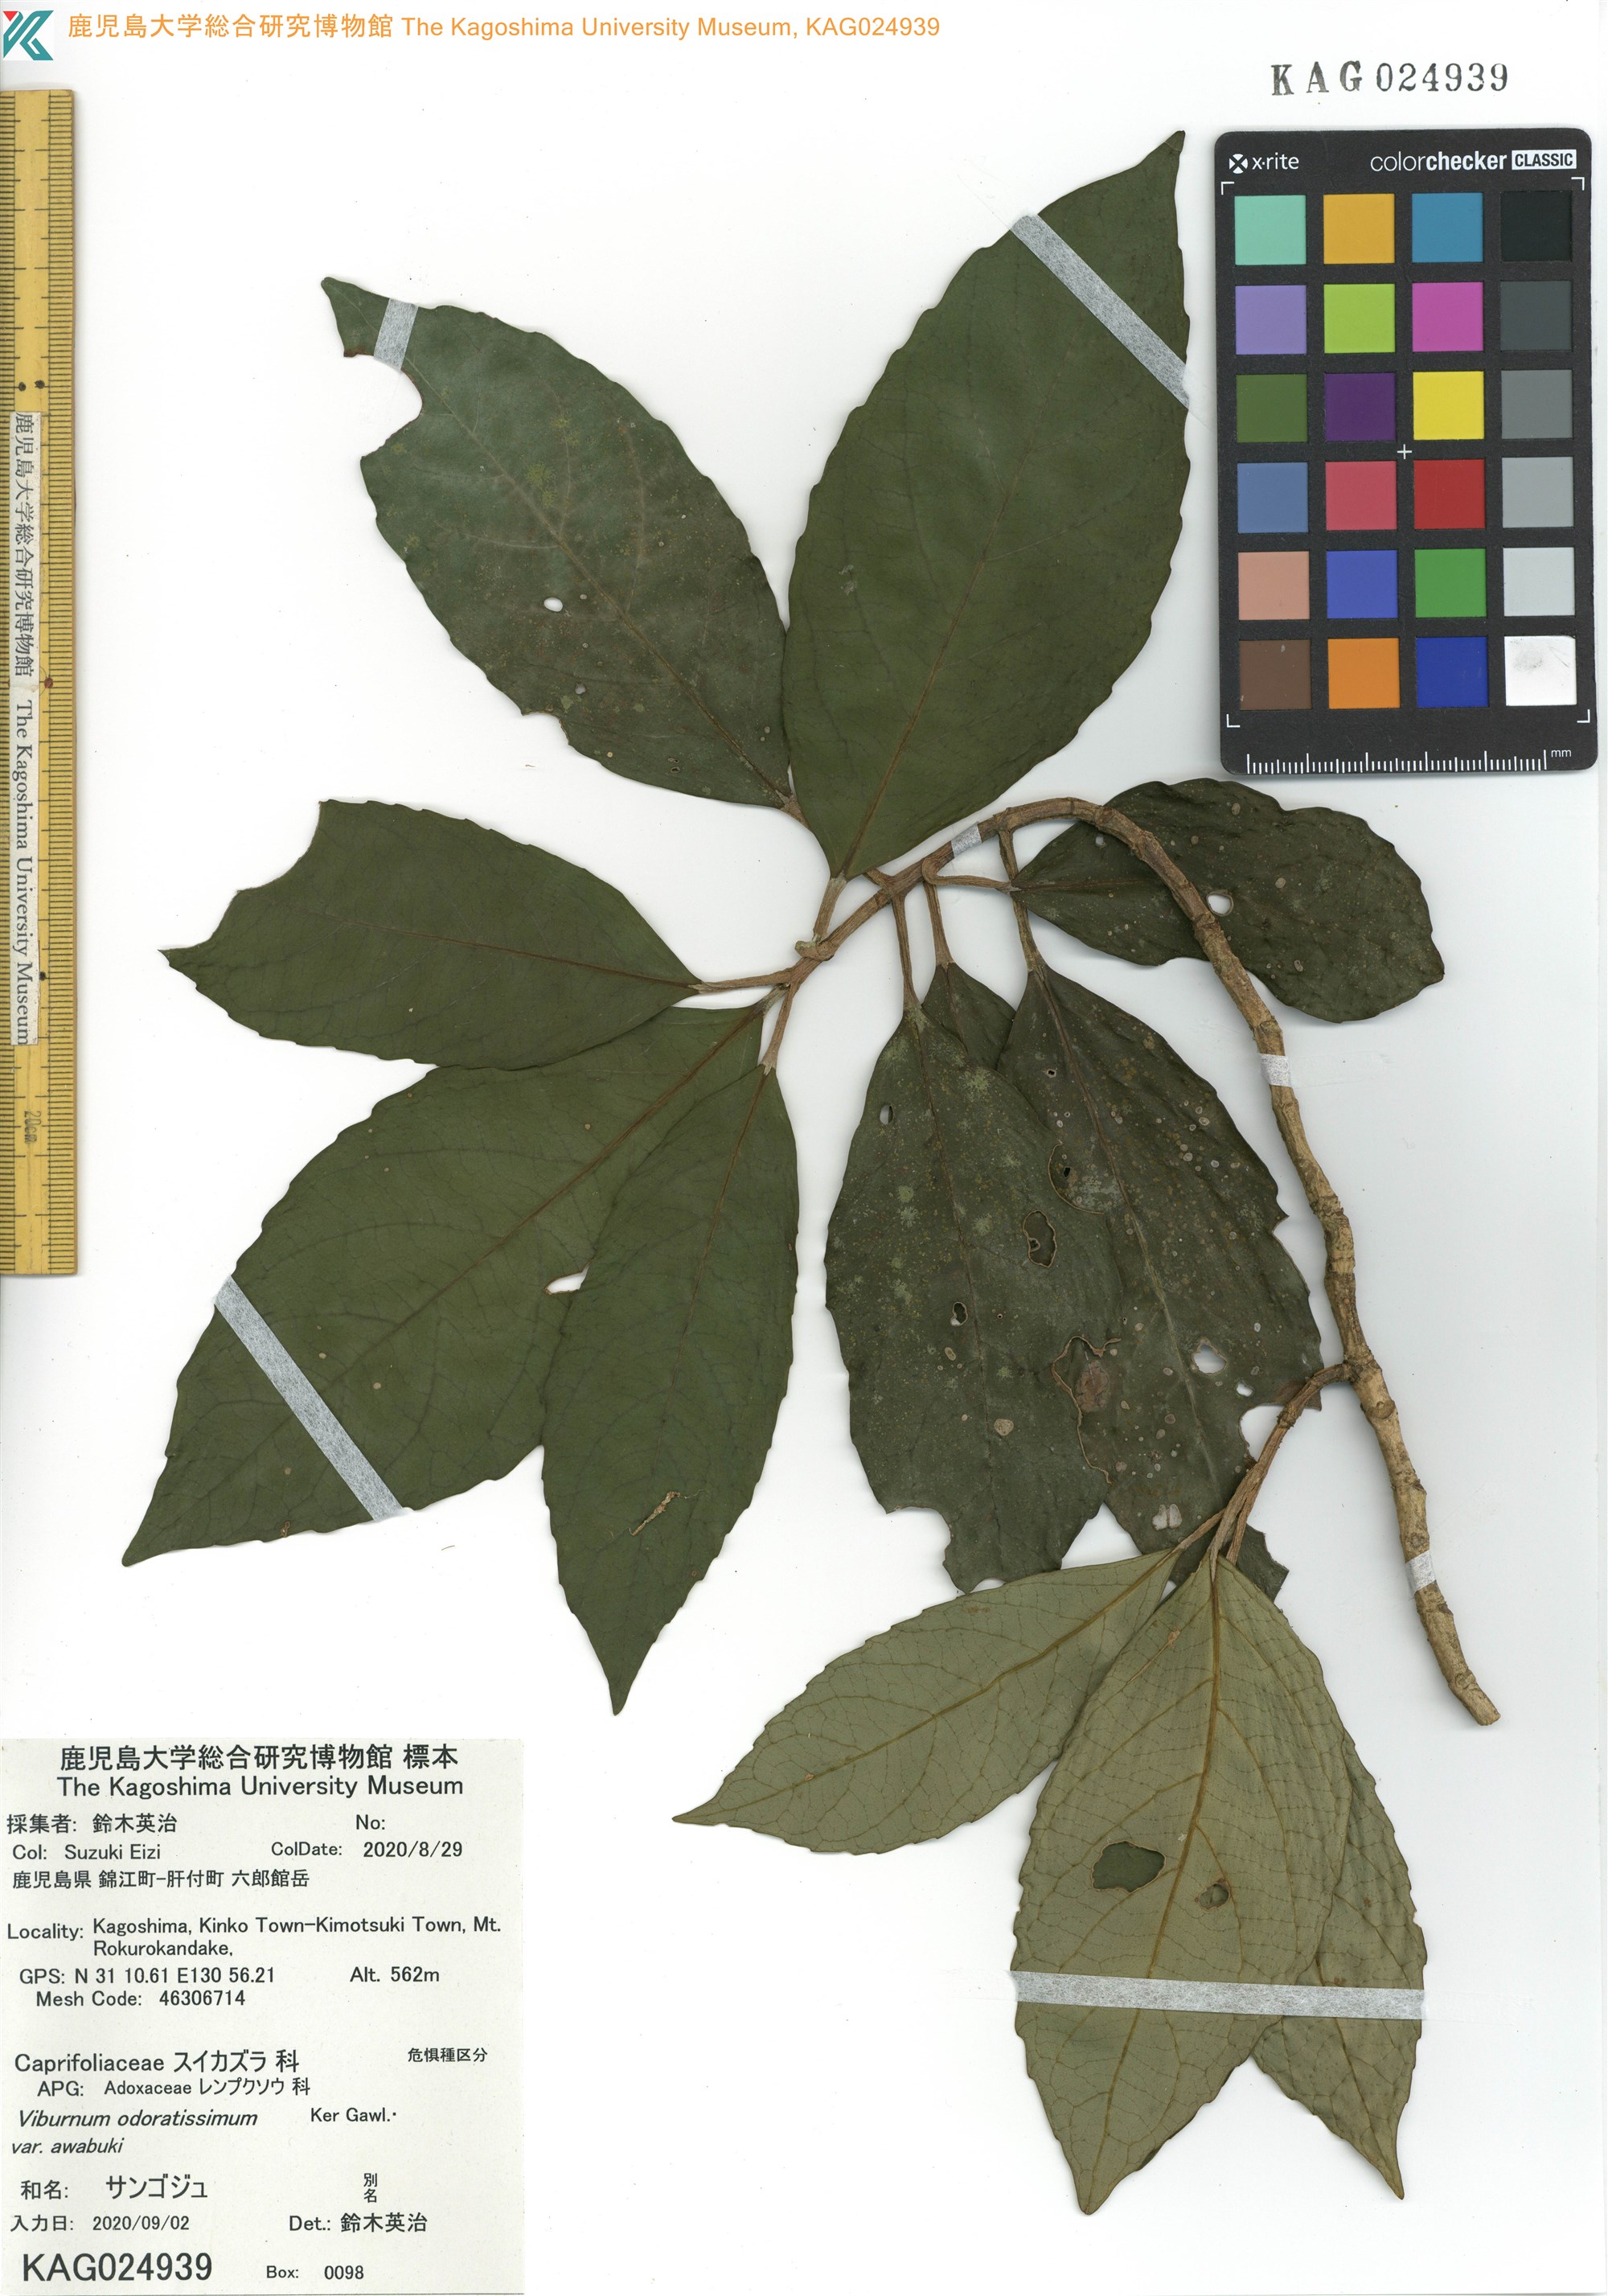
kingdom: Plantae
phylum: Tracheophyta
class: Magnoliopsida
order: Dipsacales
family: Viburnaceae
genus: Viburnum
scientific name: Viburnum odoratissimum
